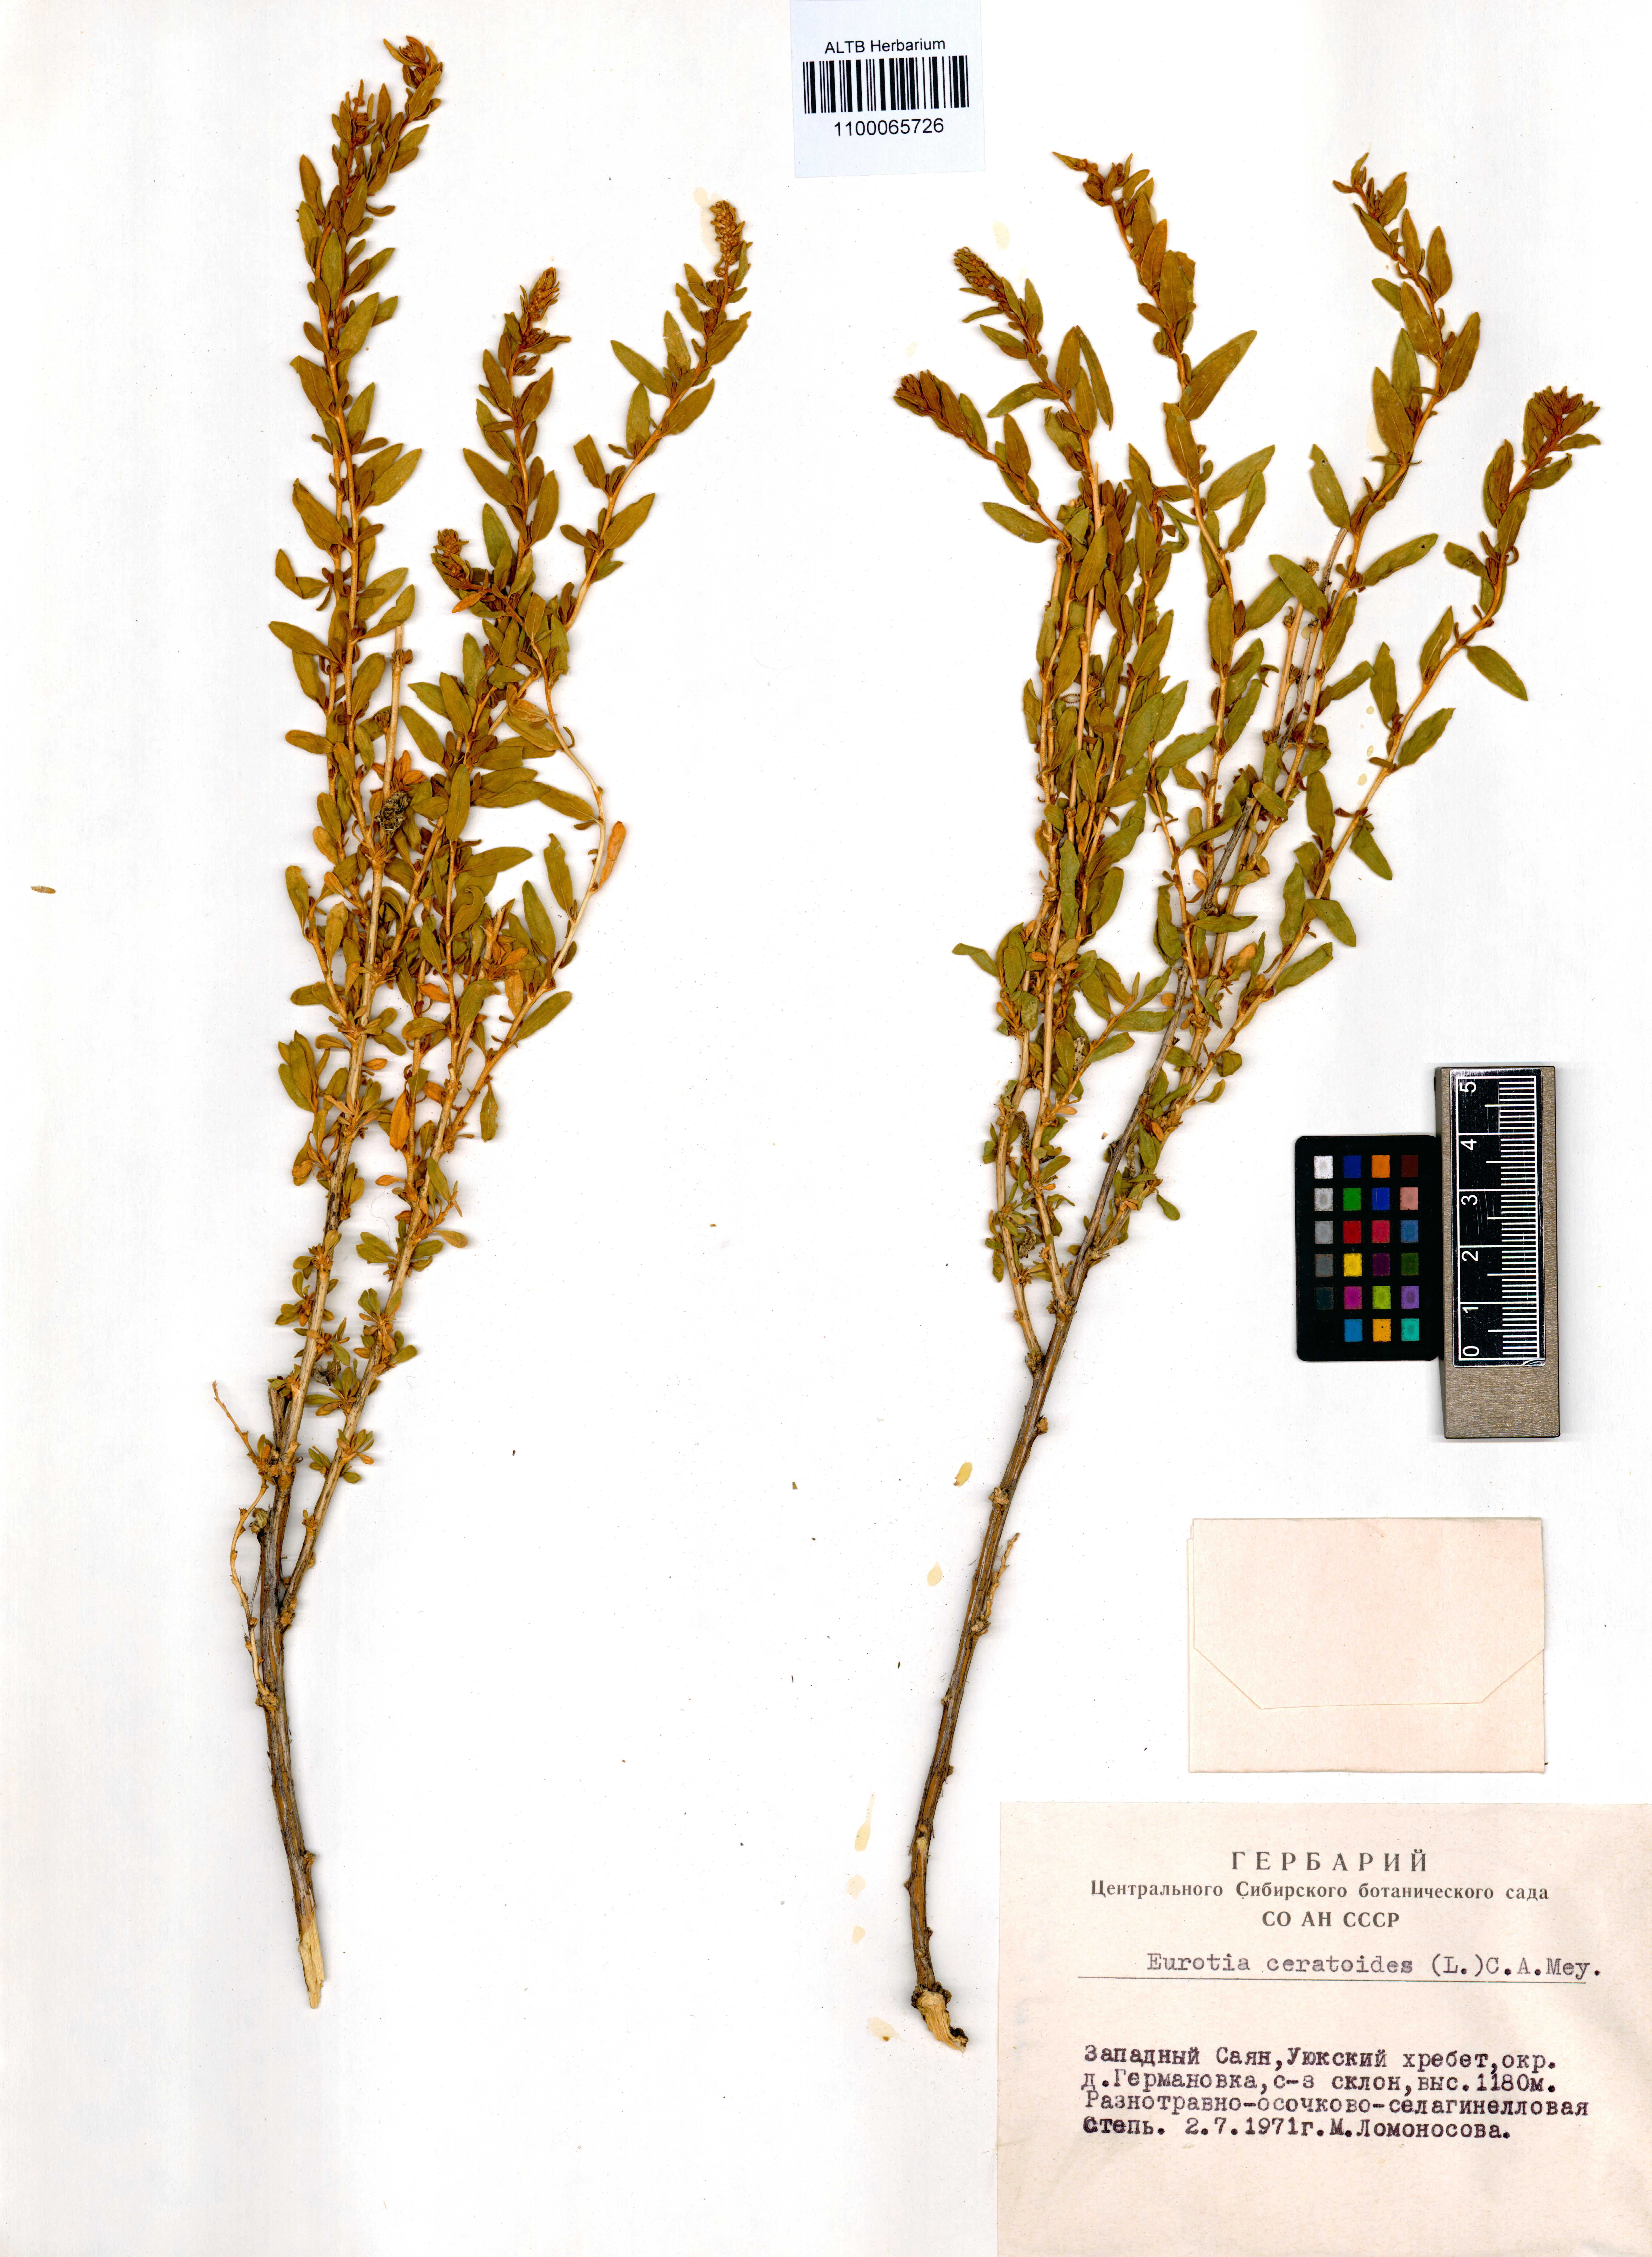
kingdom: Plantae
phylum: Tracheophyta
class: Magnoliopsida
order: Caryophyllales
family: Amaranthaceae
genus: Krascheninnikovia
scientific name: Krascheninnikovia ceratoides
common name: Pamirian winterfat
